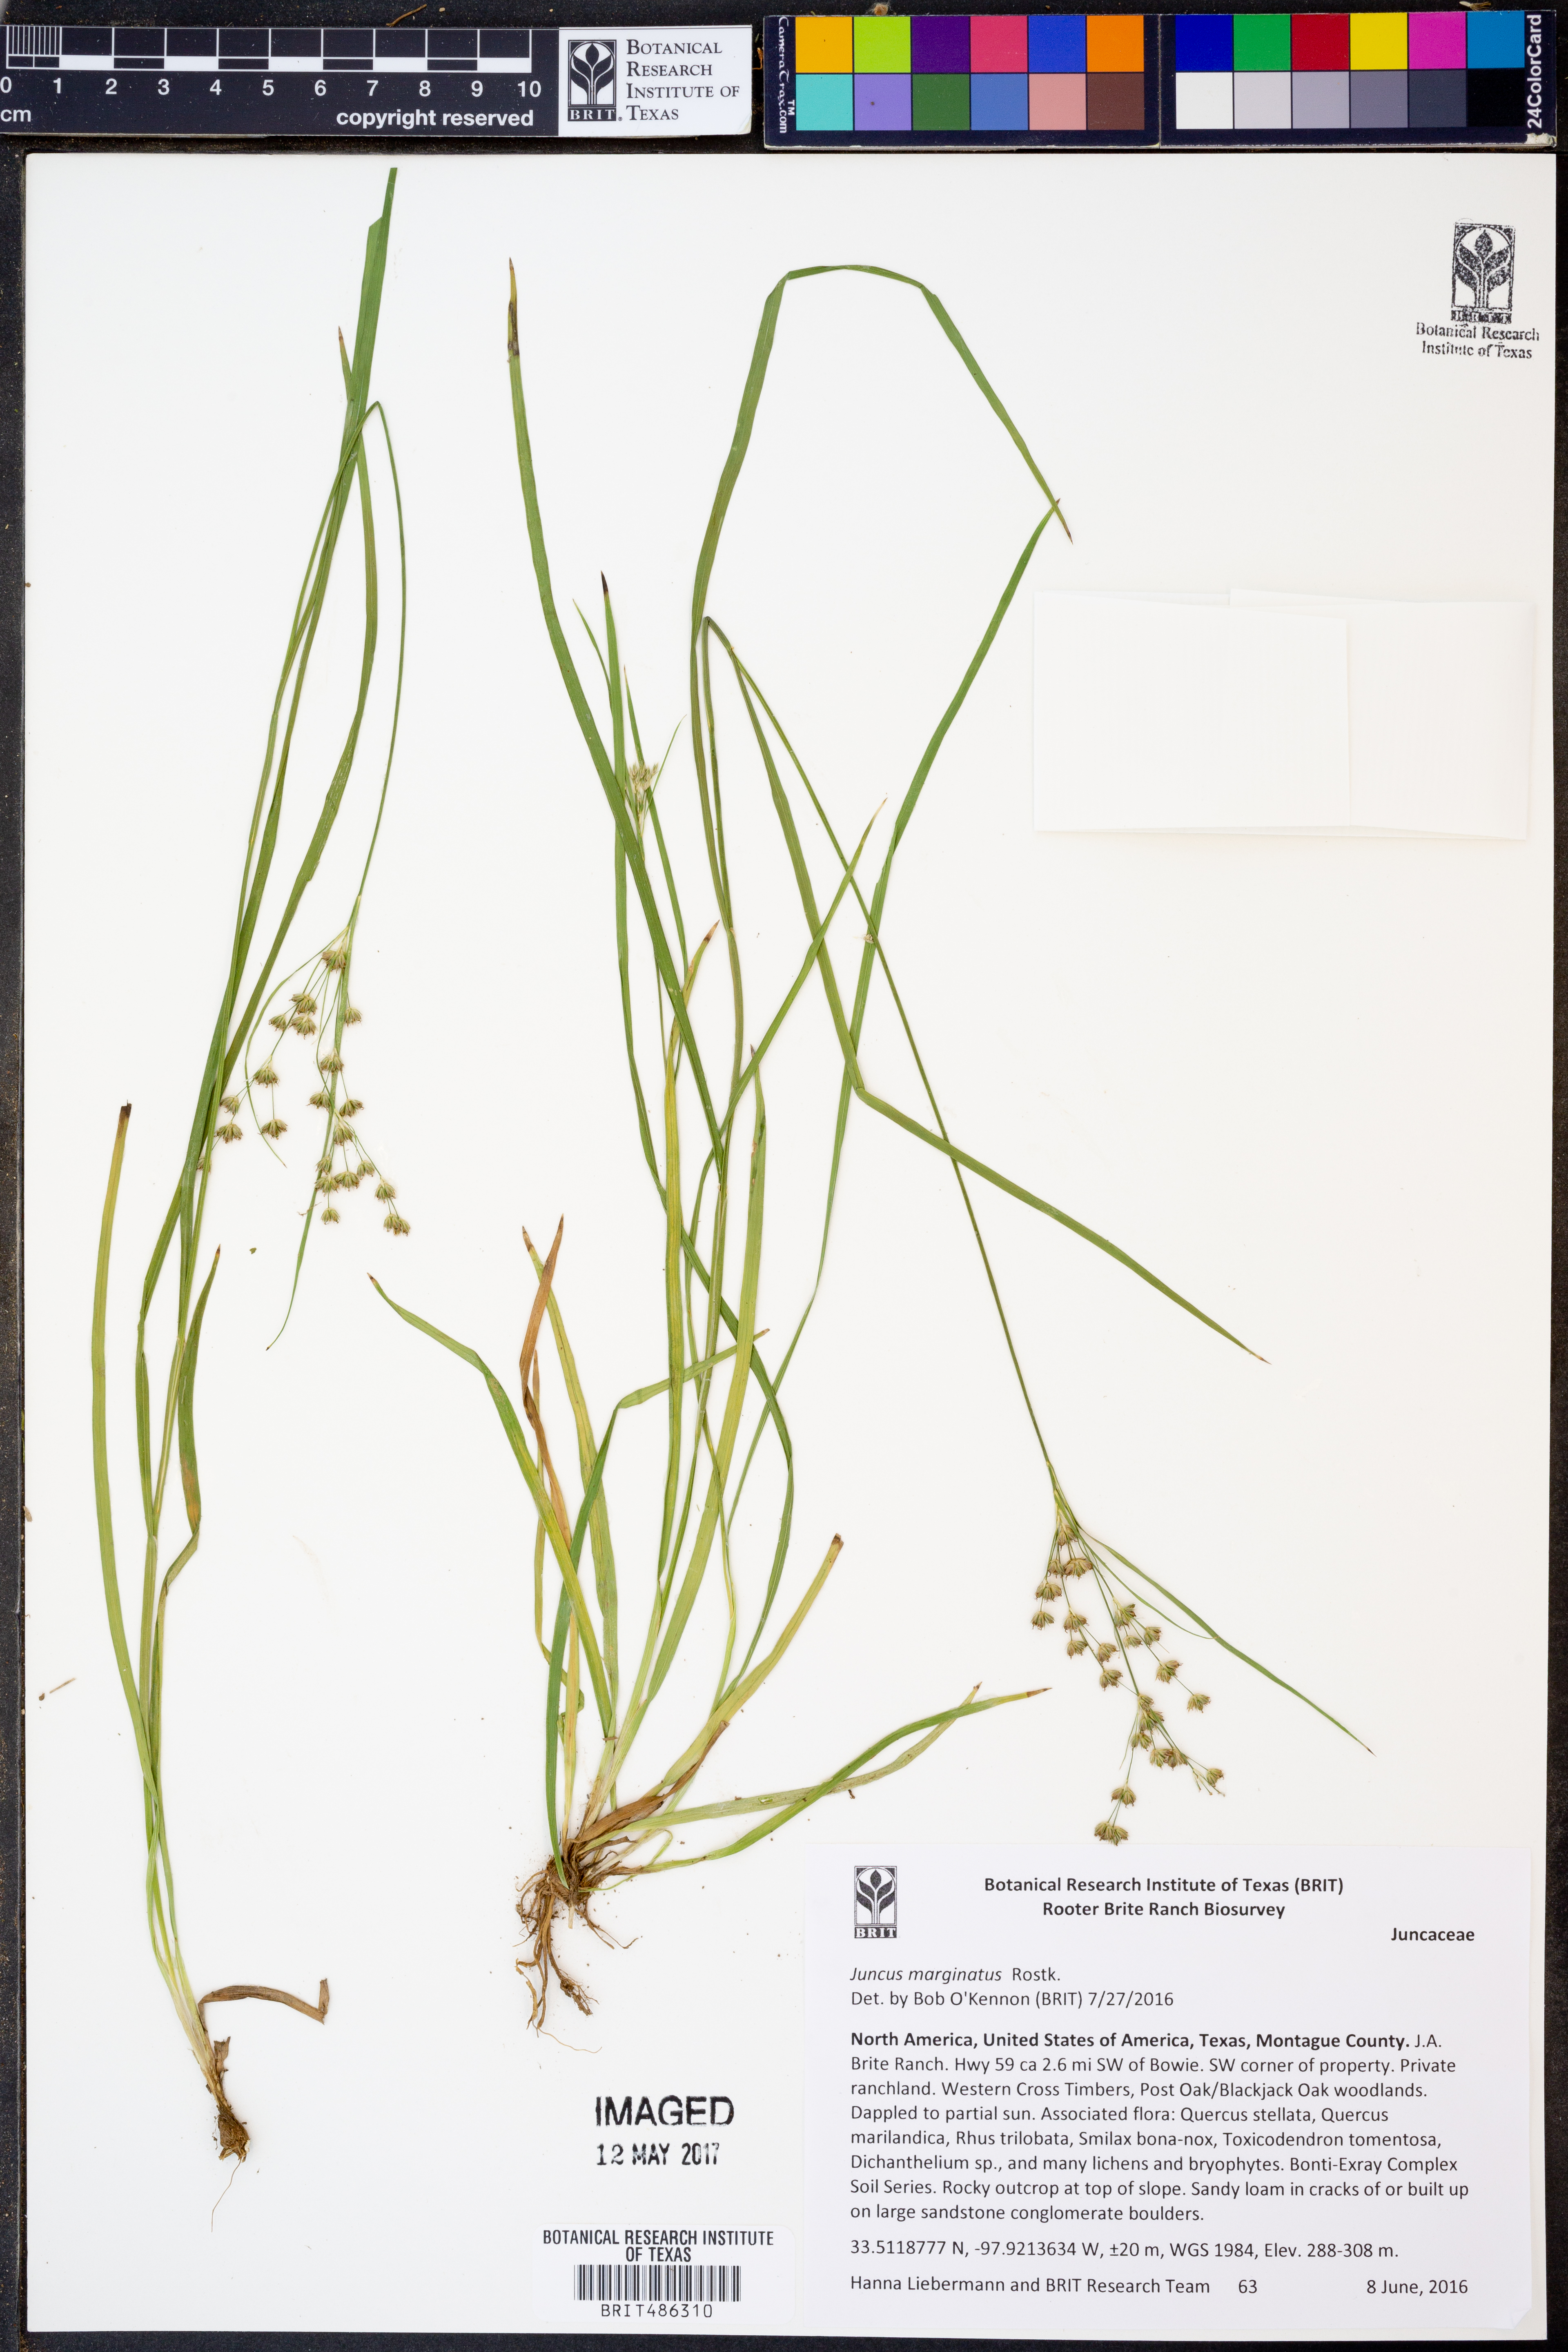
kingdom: Plantae
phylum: Tracheophyta
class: Liliopsida
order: Poales
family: Juncaceae
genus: Juncus
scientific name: Juncus marginatus
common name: Grass-leaf rush
